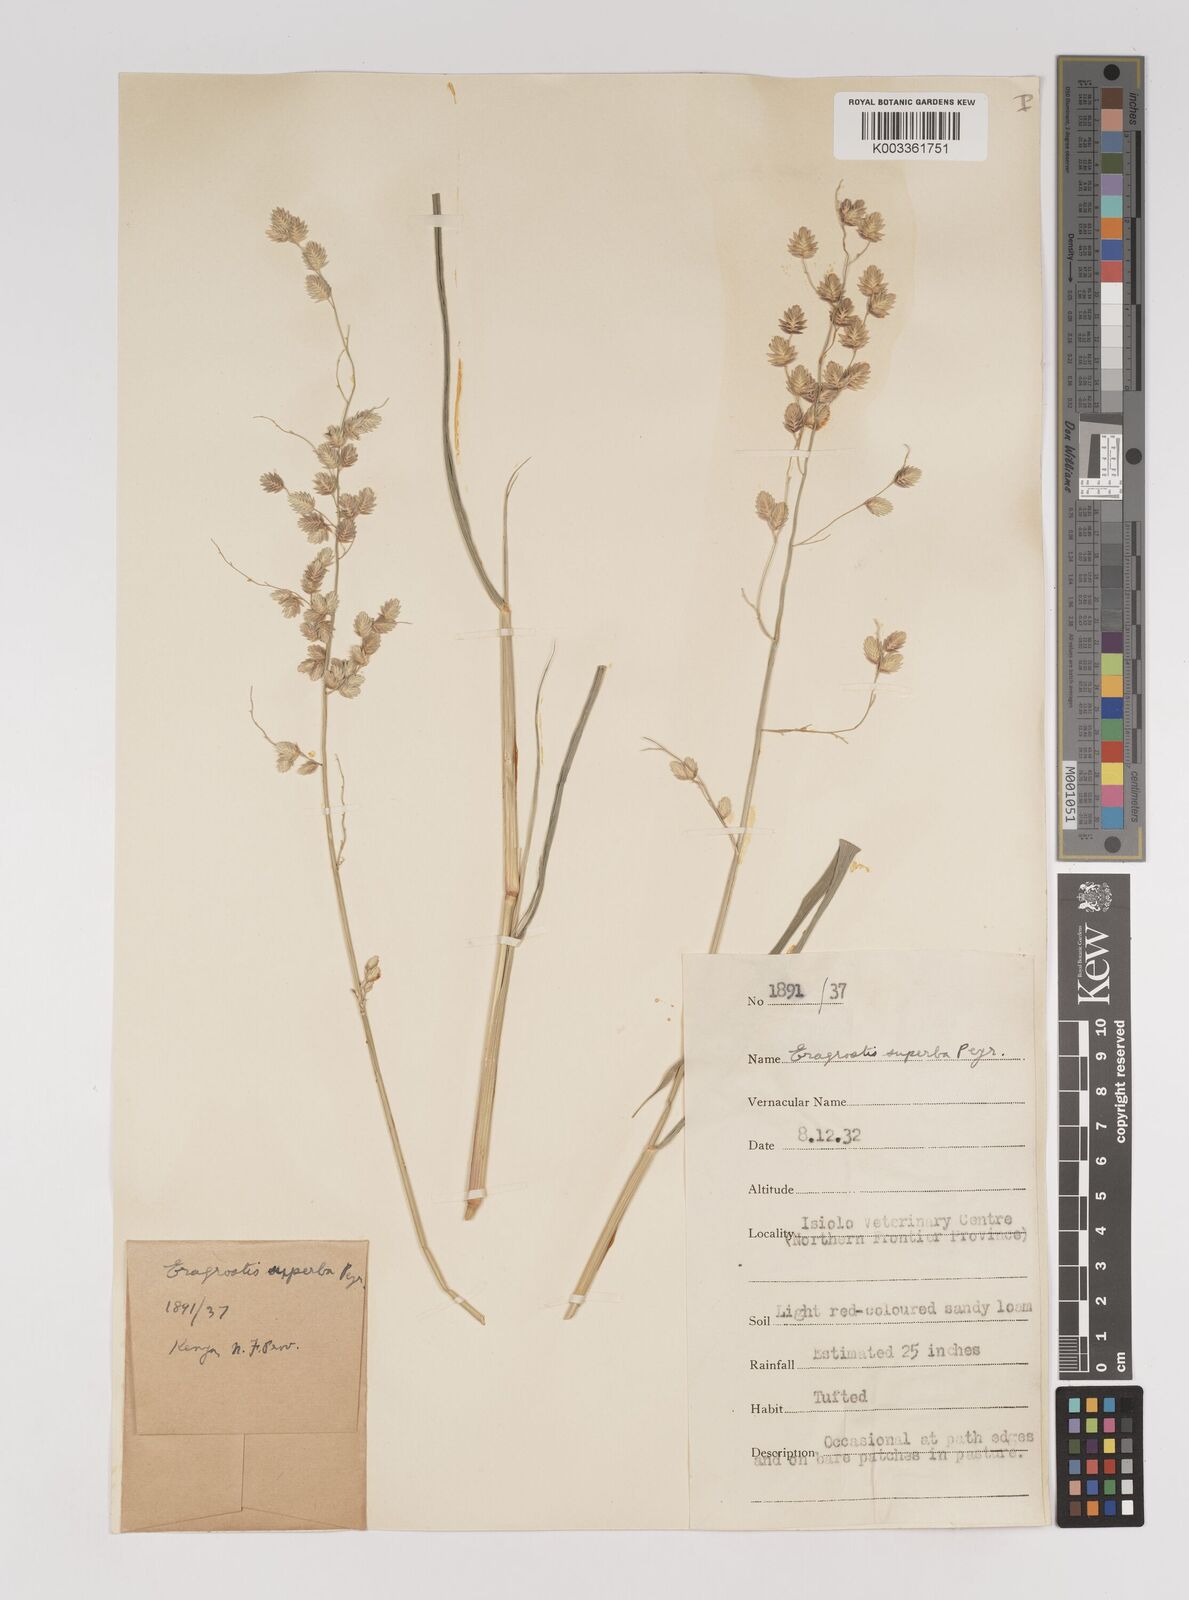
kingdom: Plantae
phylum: Tracheophyta
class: Liliopsida
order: Poales
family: Poaceae
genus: Eragrostis
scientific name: Eragrostis superba
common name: Wilman lovegrass
